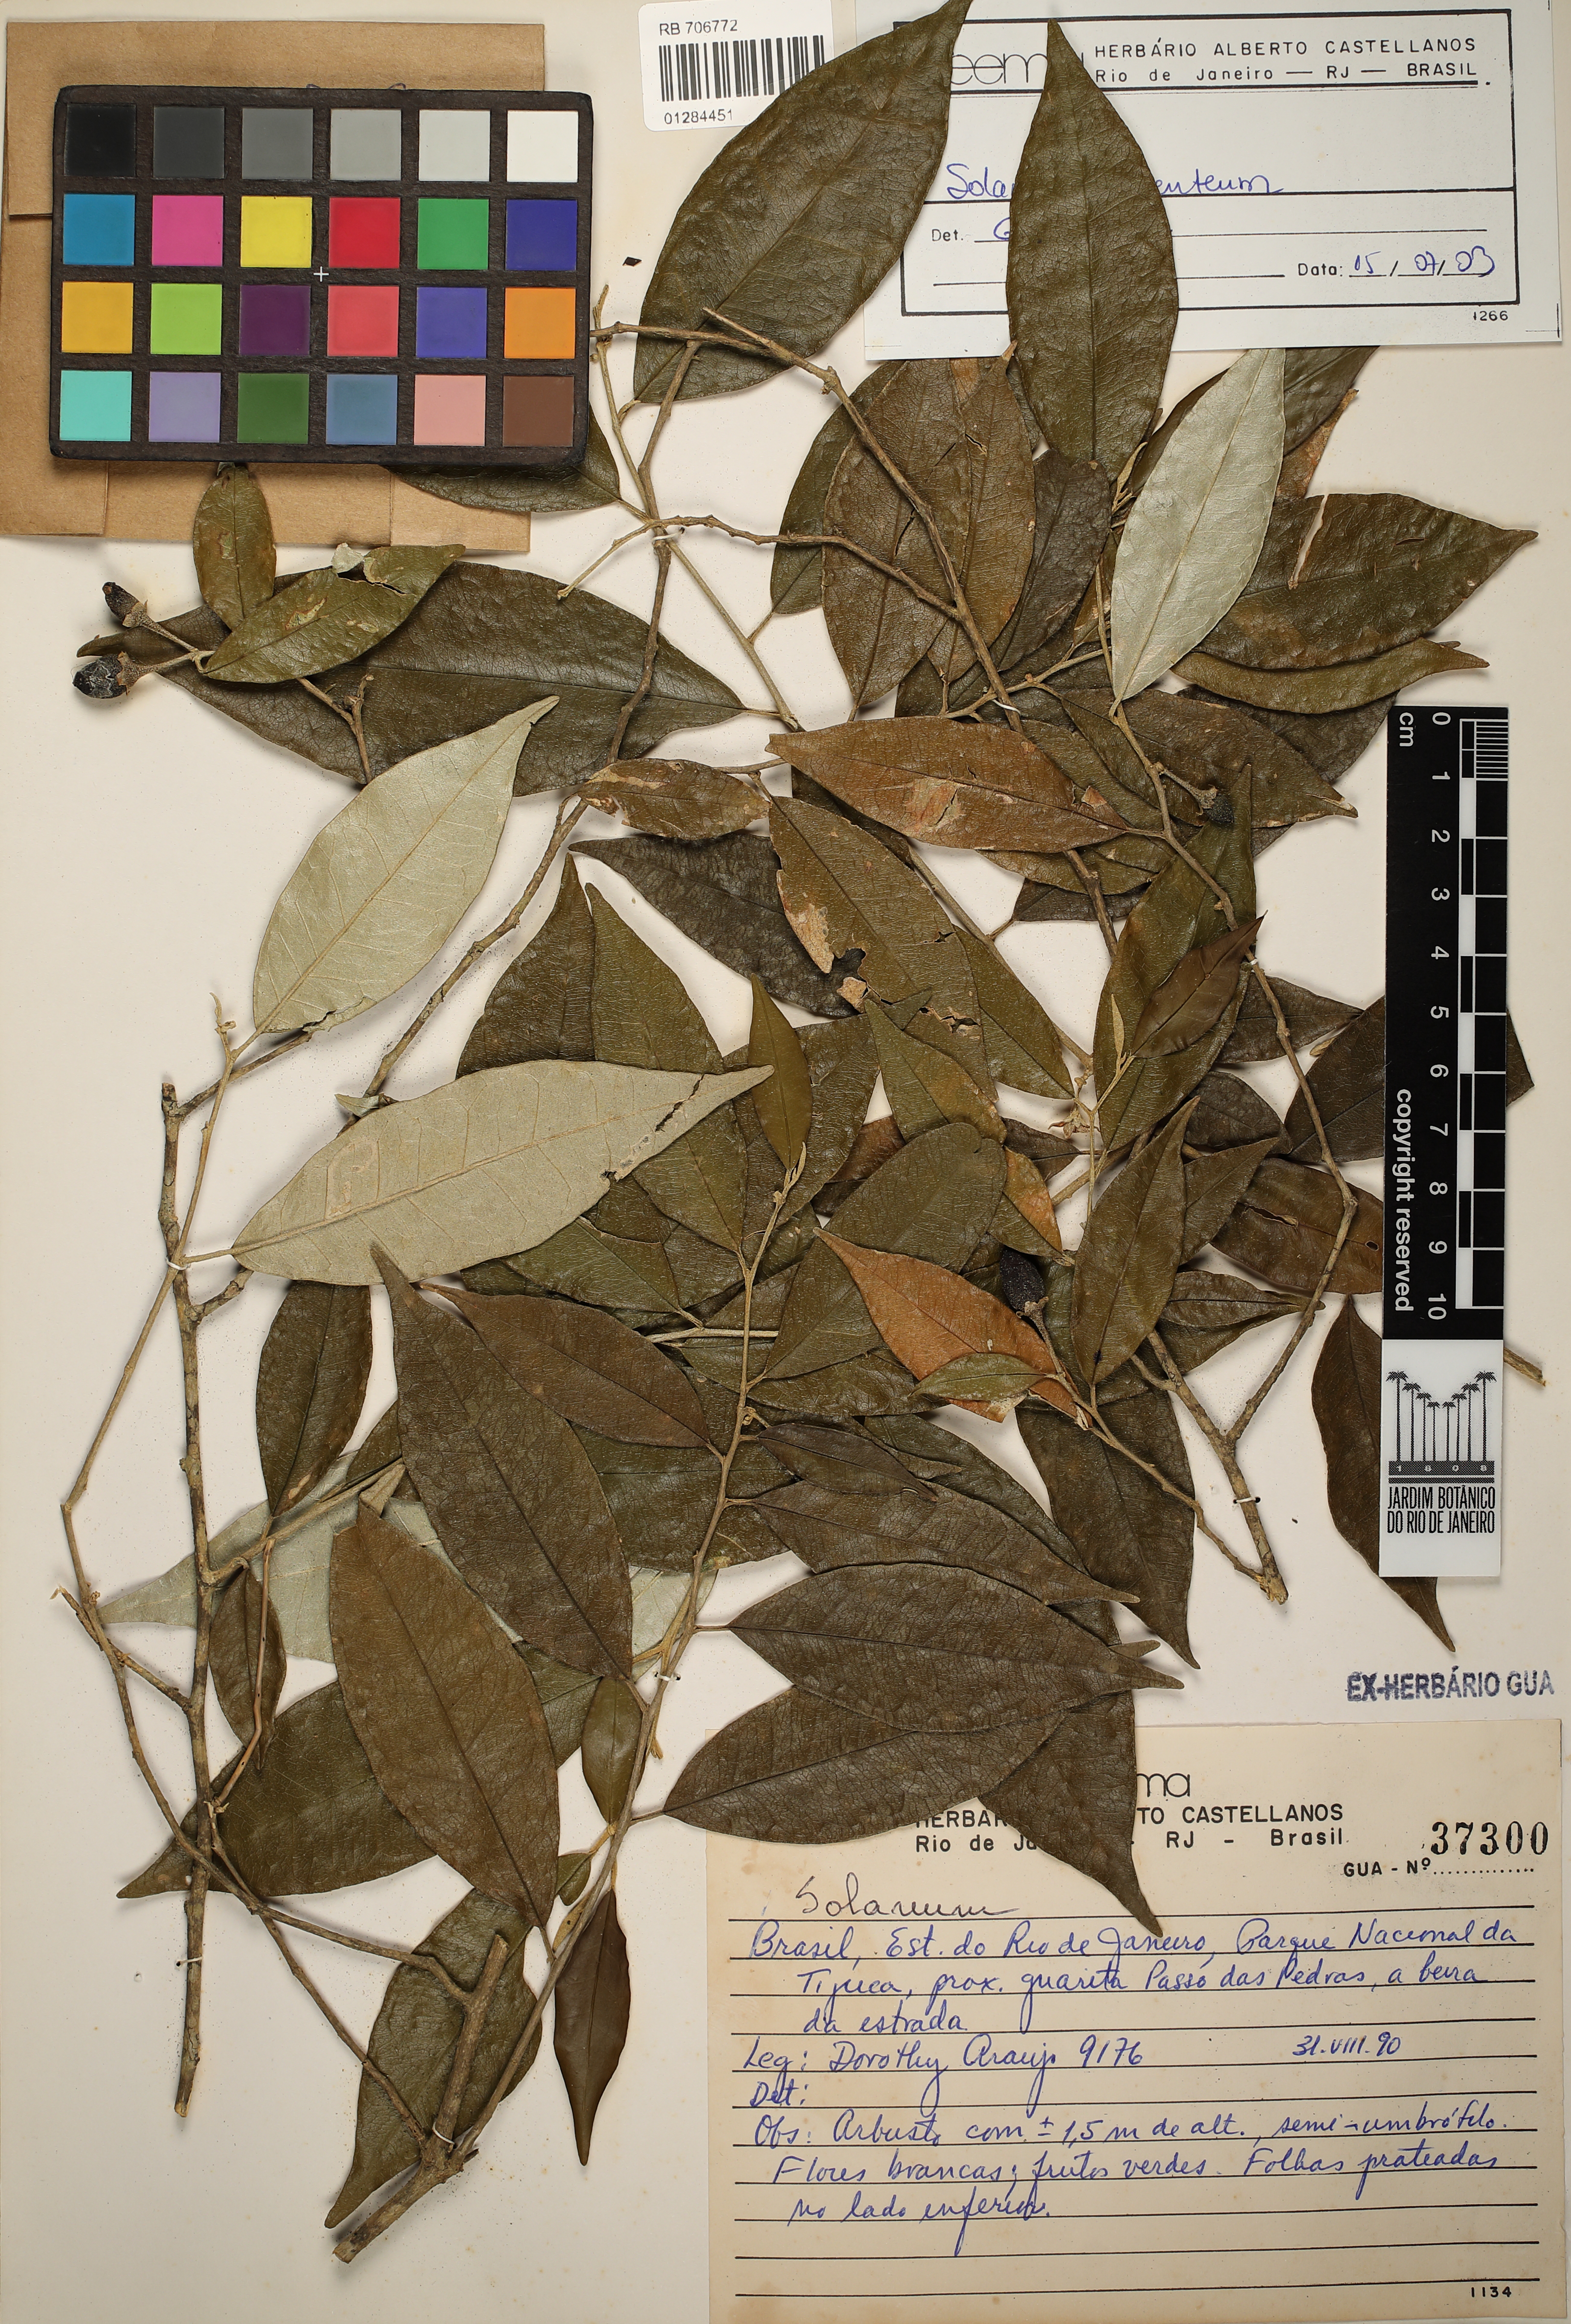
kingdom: Plantae
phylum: Tracheophyta
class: Magnoliopsida
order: Solanales
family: Solanaceae
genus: Solanum
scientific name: Solanum swartzianum
